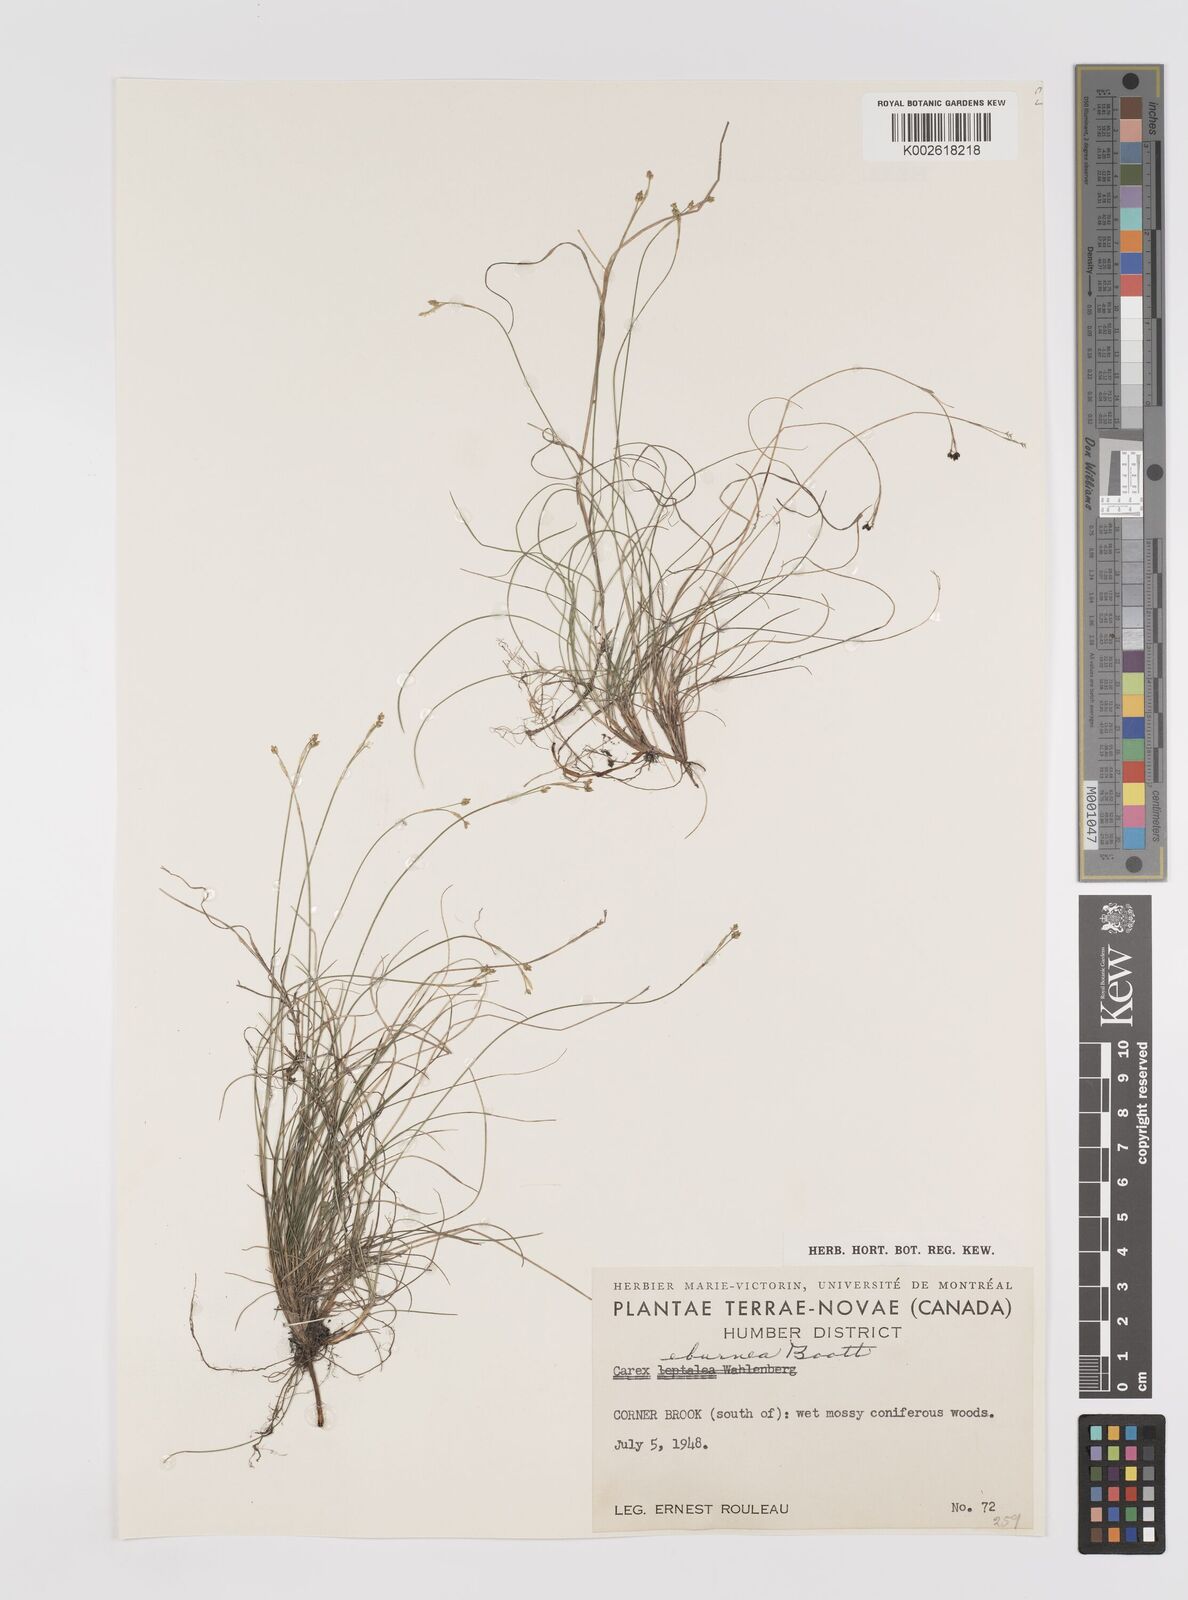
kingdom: Plantae
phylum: Tracheophyta
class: Liliopsida
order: Poales
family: Cyperaceae
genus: Carex
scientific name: Carex eburnea
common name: Bristle-leaved sedge
